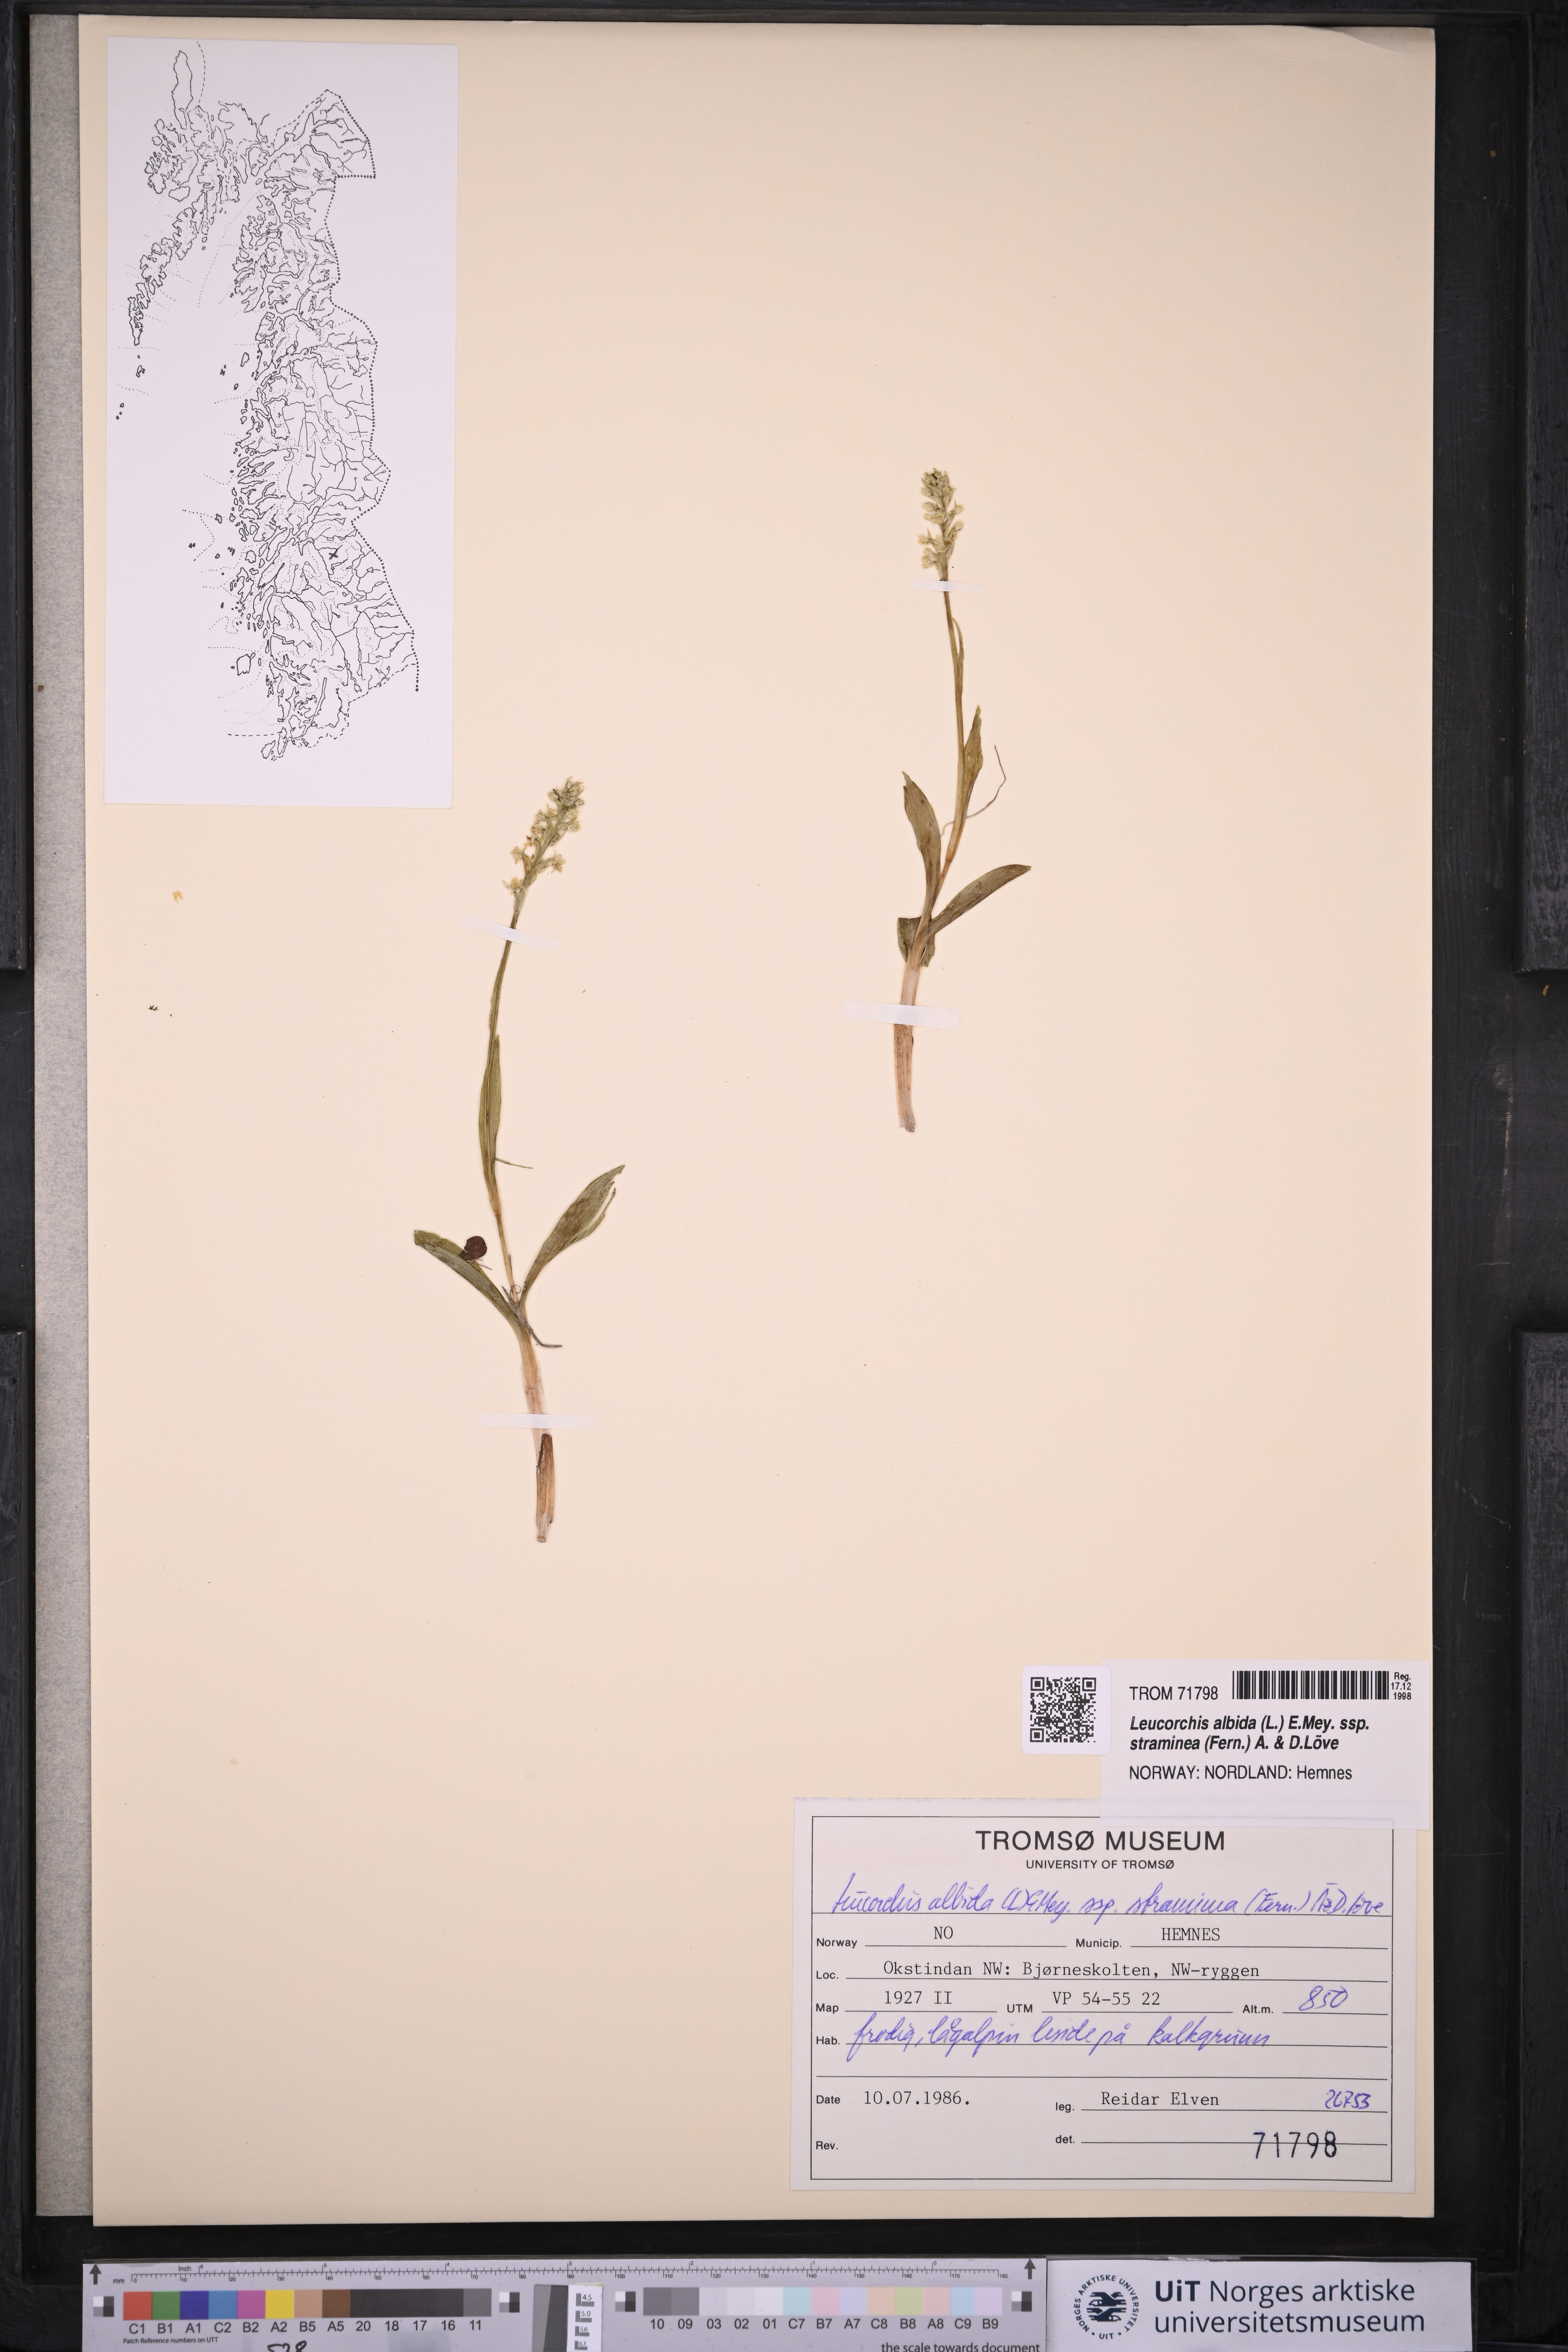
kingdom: Plantae
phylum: Tracheophyta
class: Liliopsida
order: Asparagales
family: Orchidaceae
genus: Pseudorchis
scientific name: Pseudorchis straminea
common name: Vanilla-scented bog orchid
